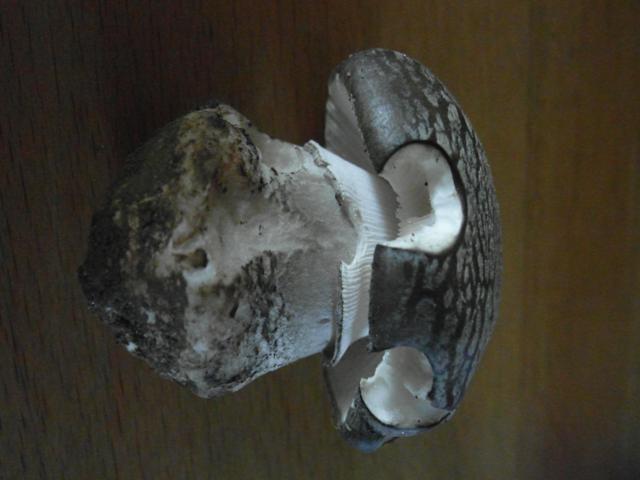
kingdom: Fungi
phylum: Basidiomycota
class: Agaricomycetes
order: Agaricales
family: Amanitaceae
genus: Amanita
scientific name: Amanita
